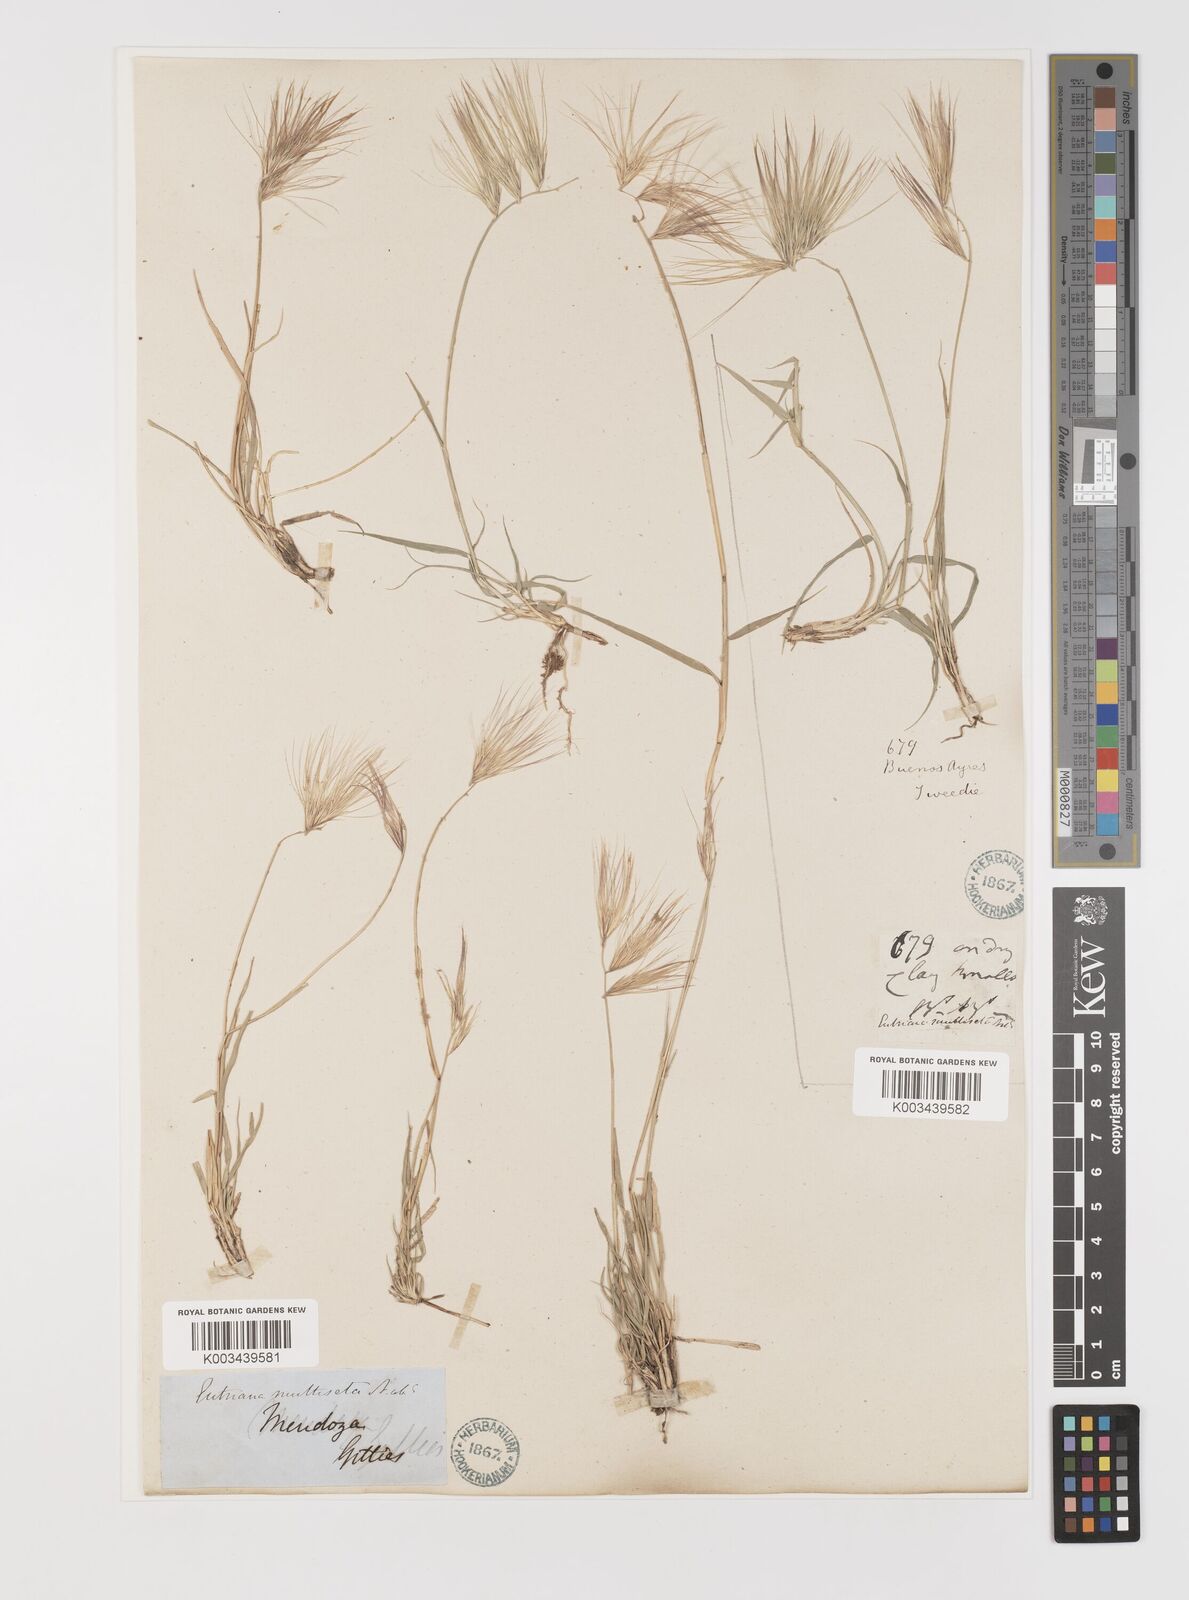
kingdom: Plantae
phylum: Tracheophyta
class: Liliopsida
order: Poales
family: Poaceae
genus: Bouteloua
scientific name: Bouteloua megapotamica
